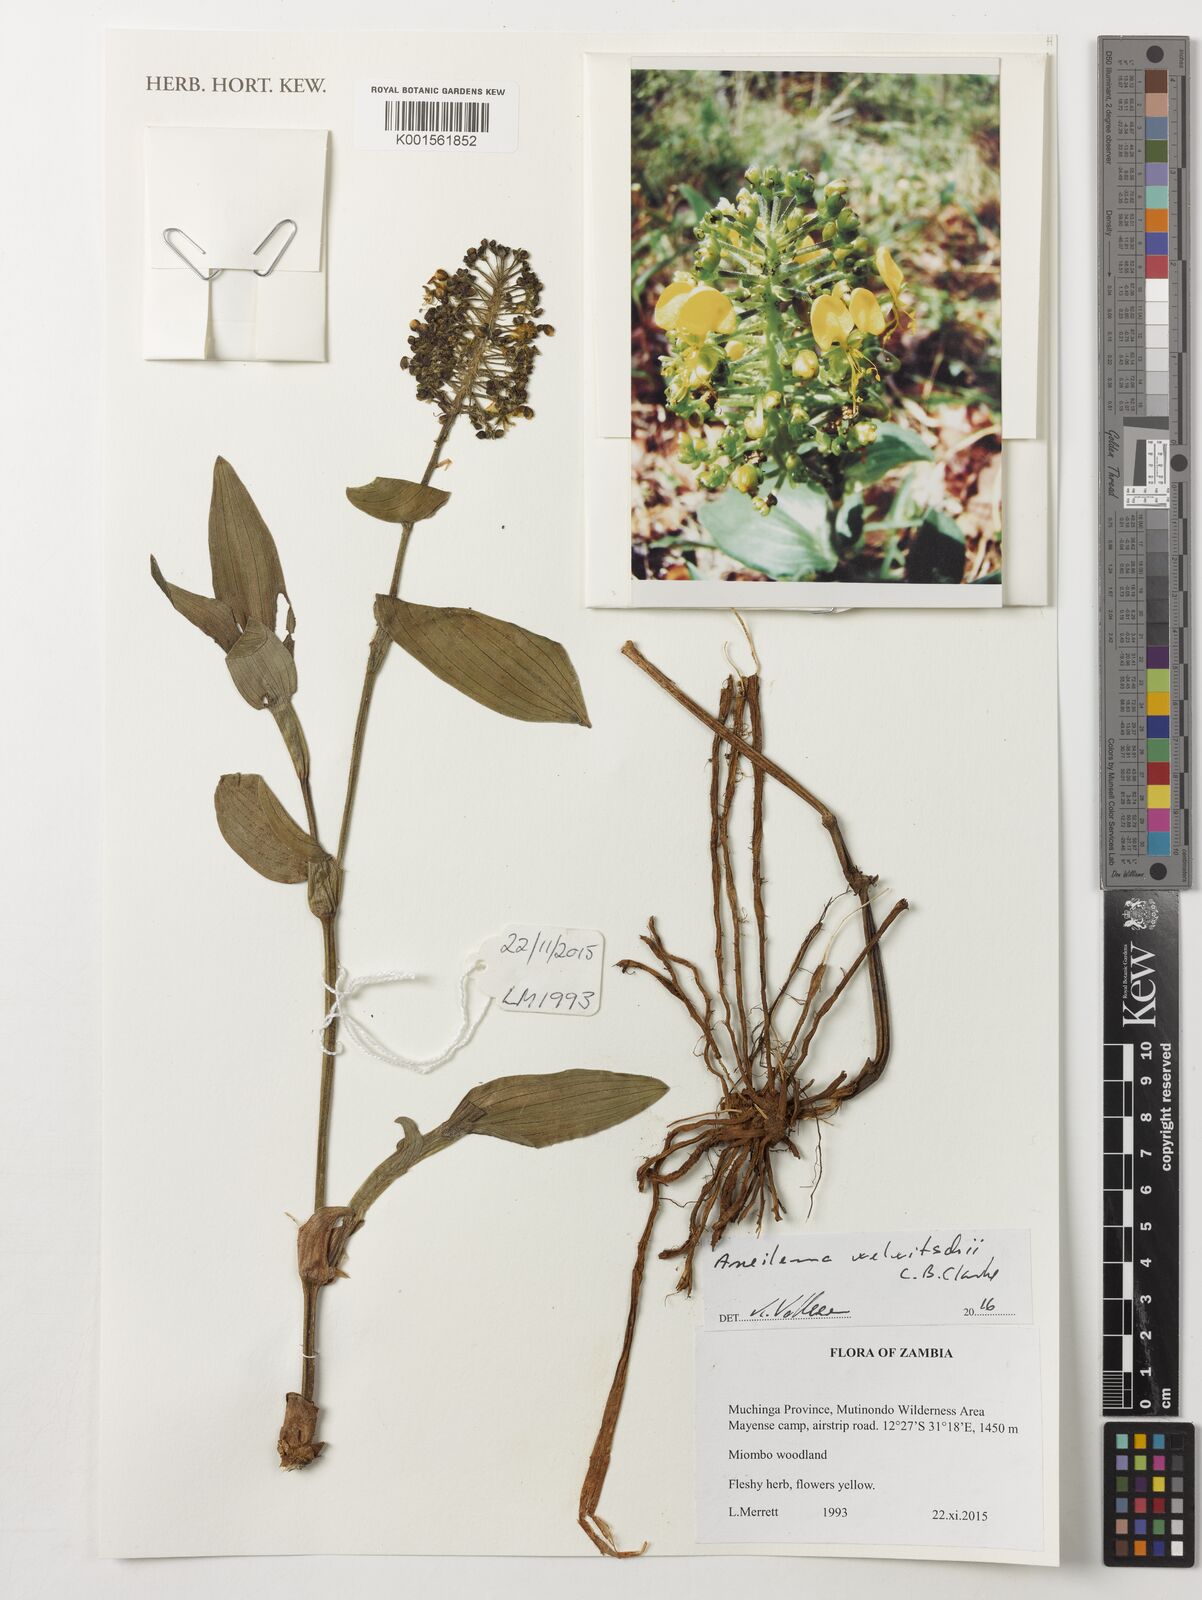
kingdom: Plantae
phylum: Tracheophyta
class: Liliopsida
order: Commelinales
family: Commelinaceae
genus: Aneilema
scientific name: Aneilema welwitschii
